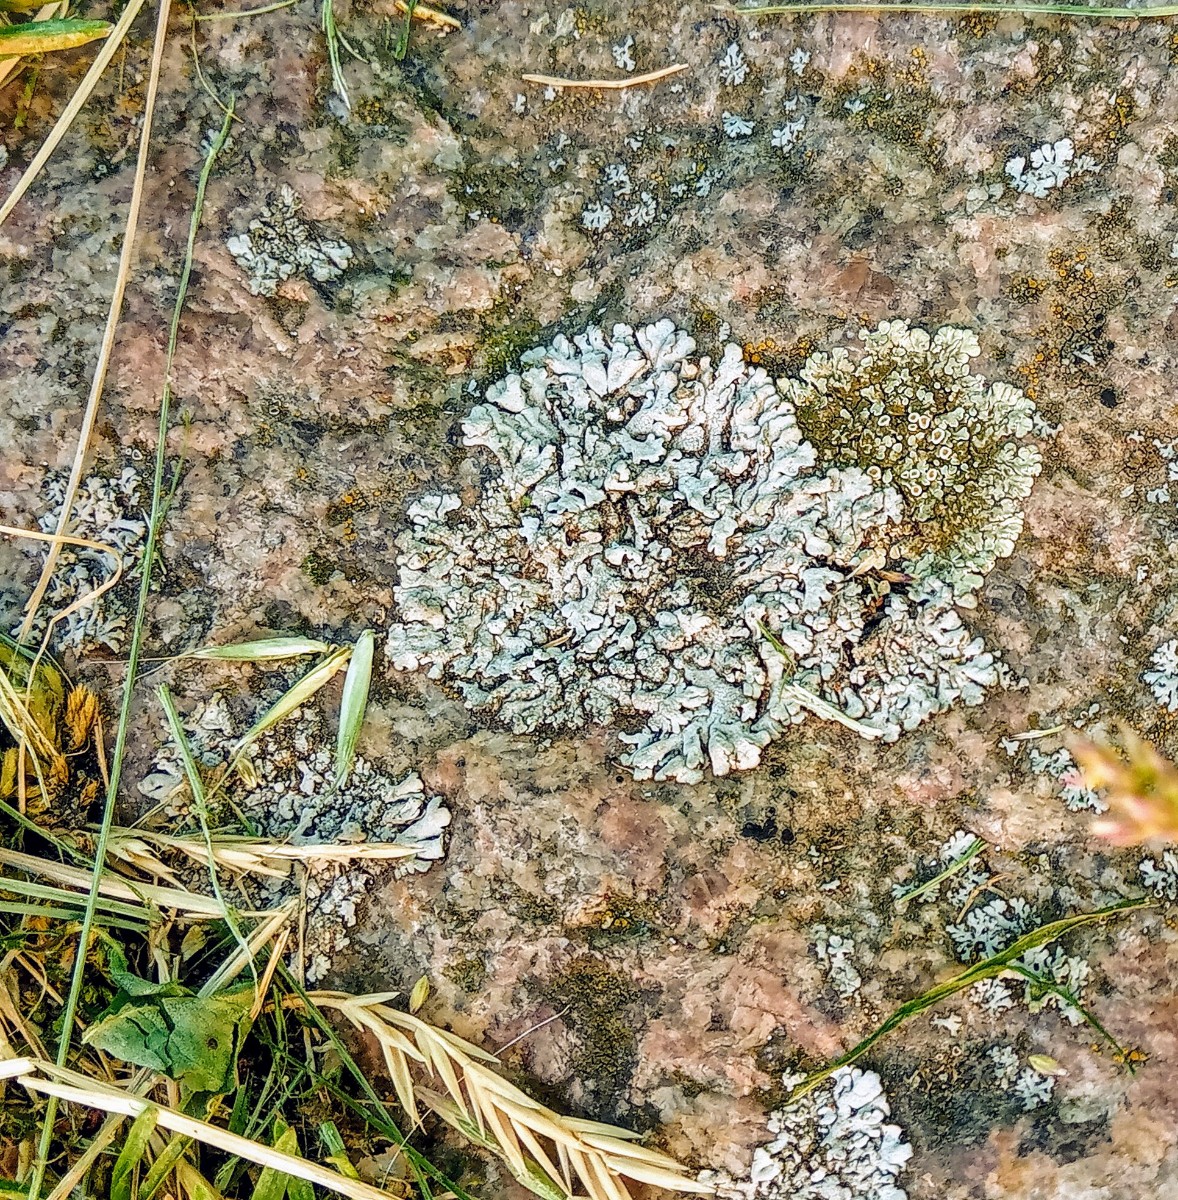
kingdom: Fungi
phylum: Ascomycota
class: Lecanoromycetes
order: Caliciales
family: Physciaceae
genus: Physcia
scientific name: Physcia caesia
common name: blågrå rosetlav
